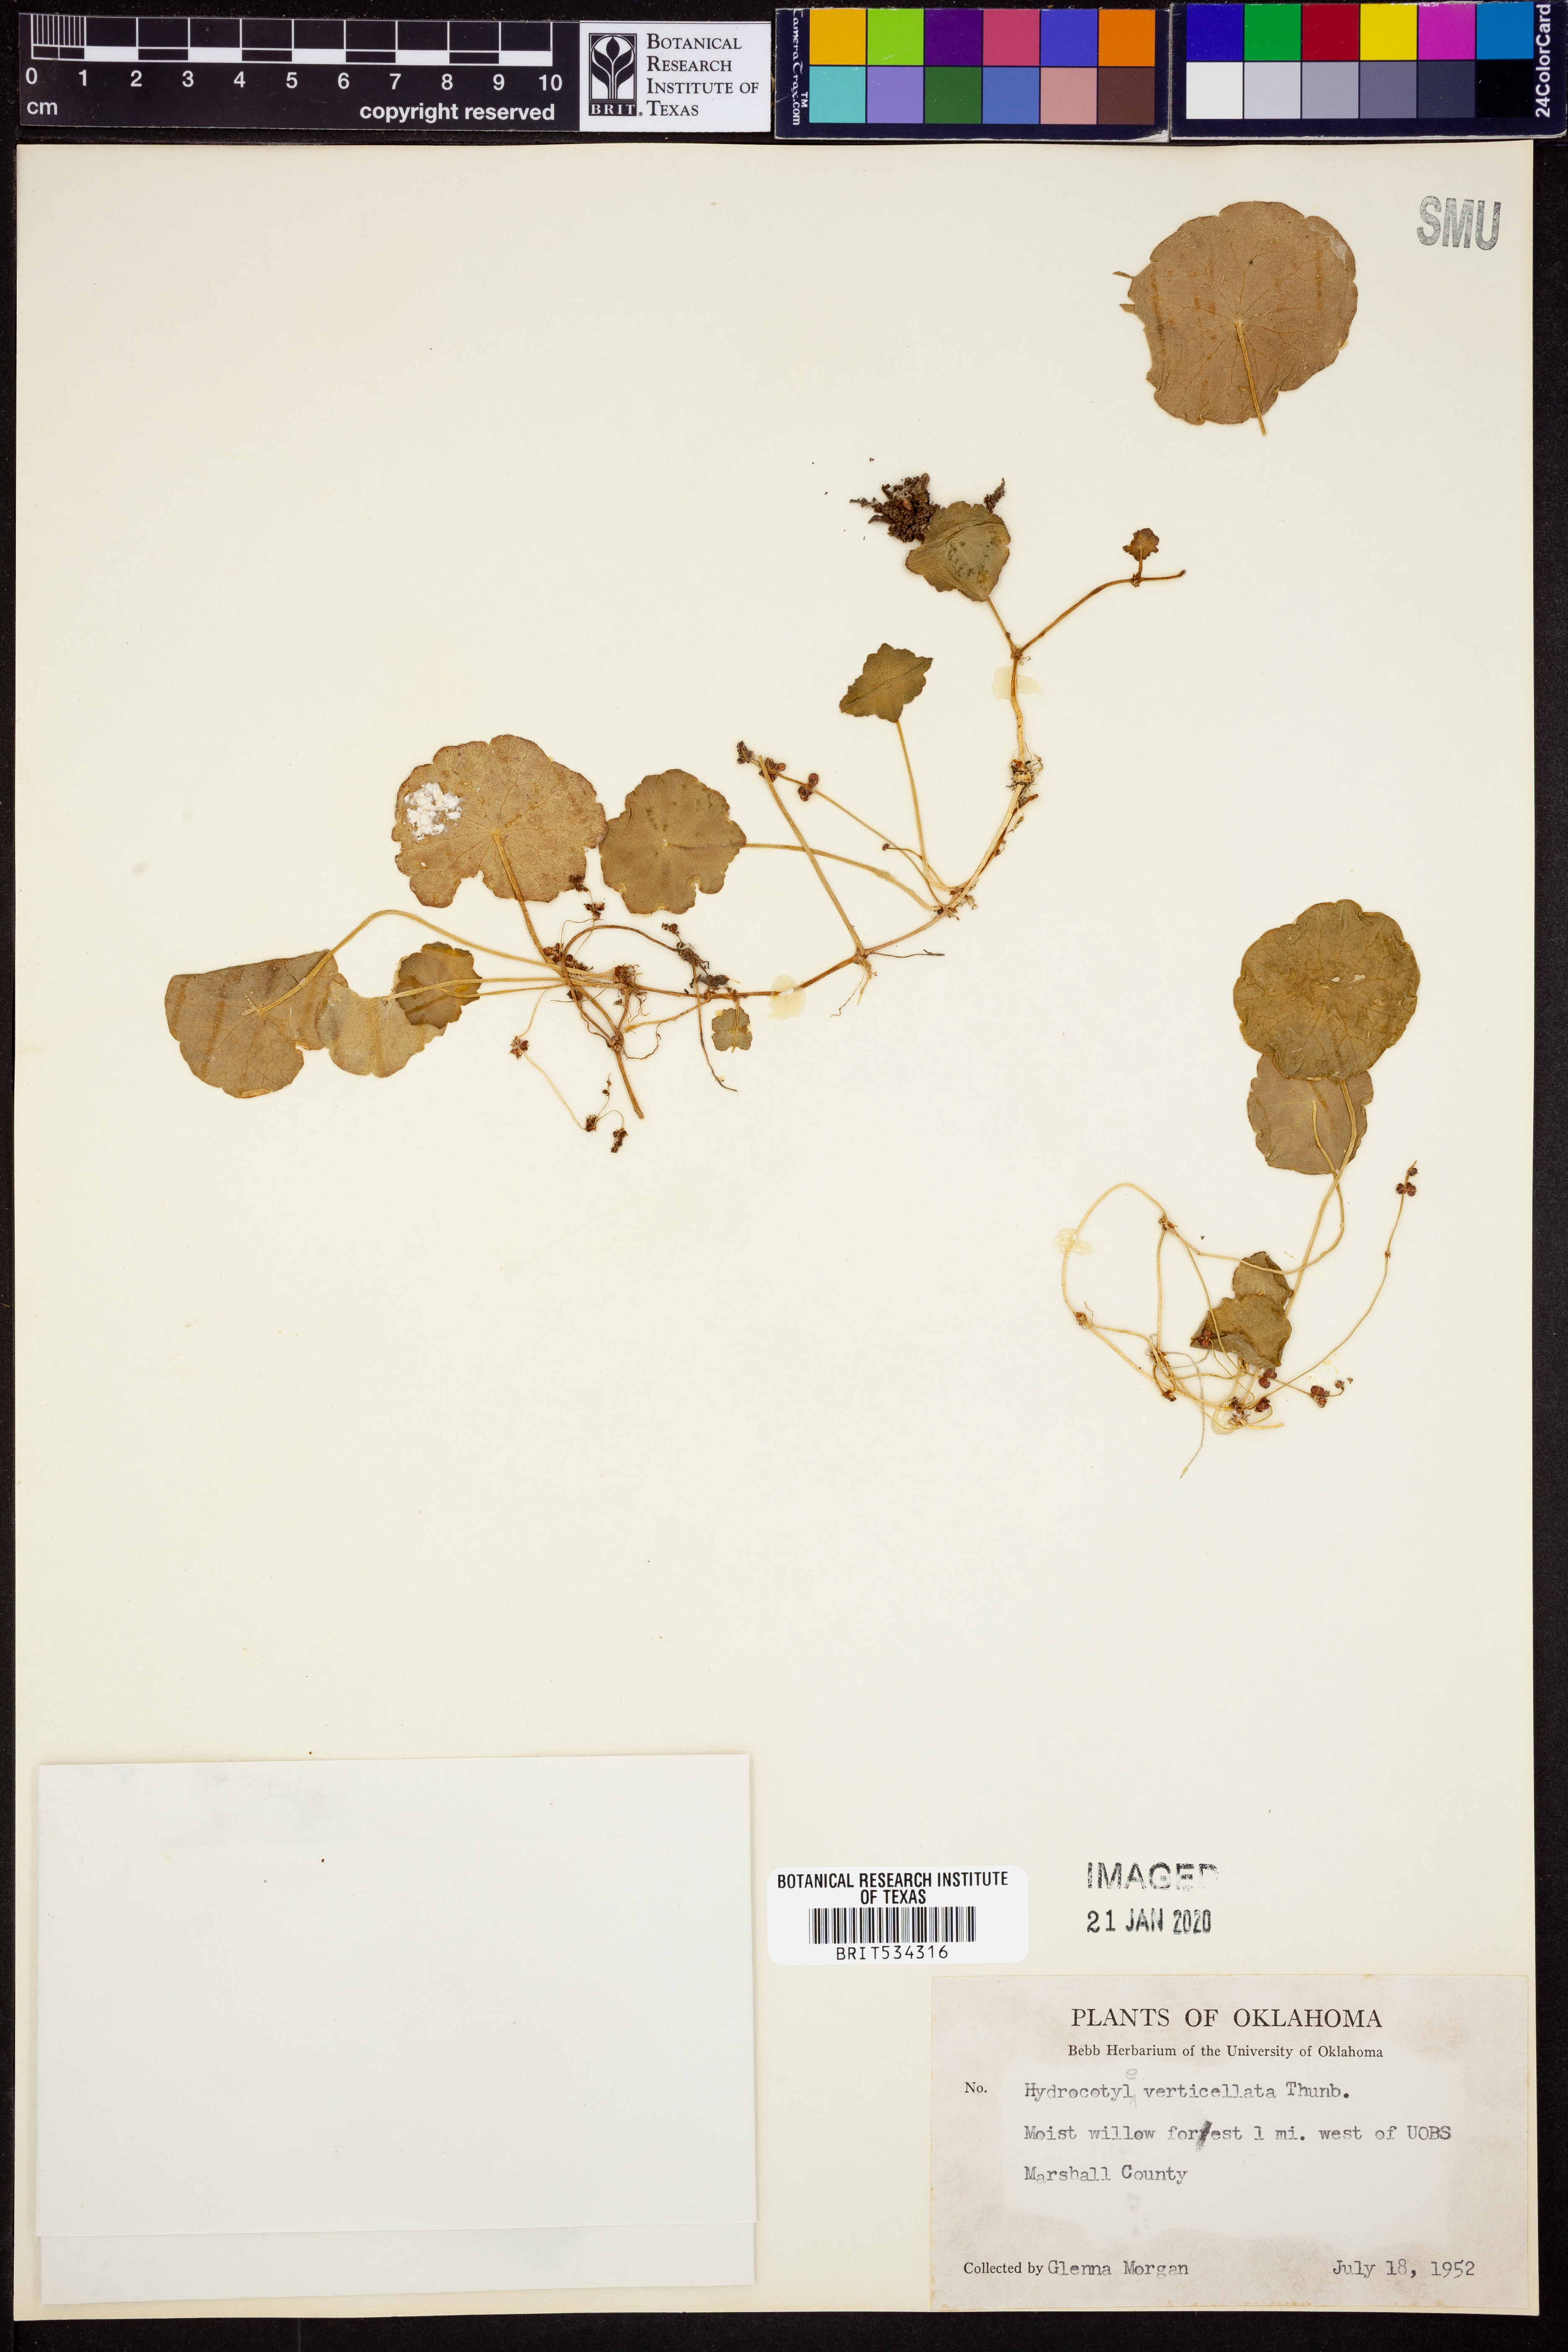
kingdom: Plantae
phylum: Tracheophyta
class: Magnoliopsida
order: Apiales
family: Araliaceae
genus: Hydrocotyle
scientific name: Hydrocotyle verticillata
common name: Whorled marshpennywort
